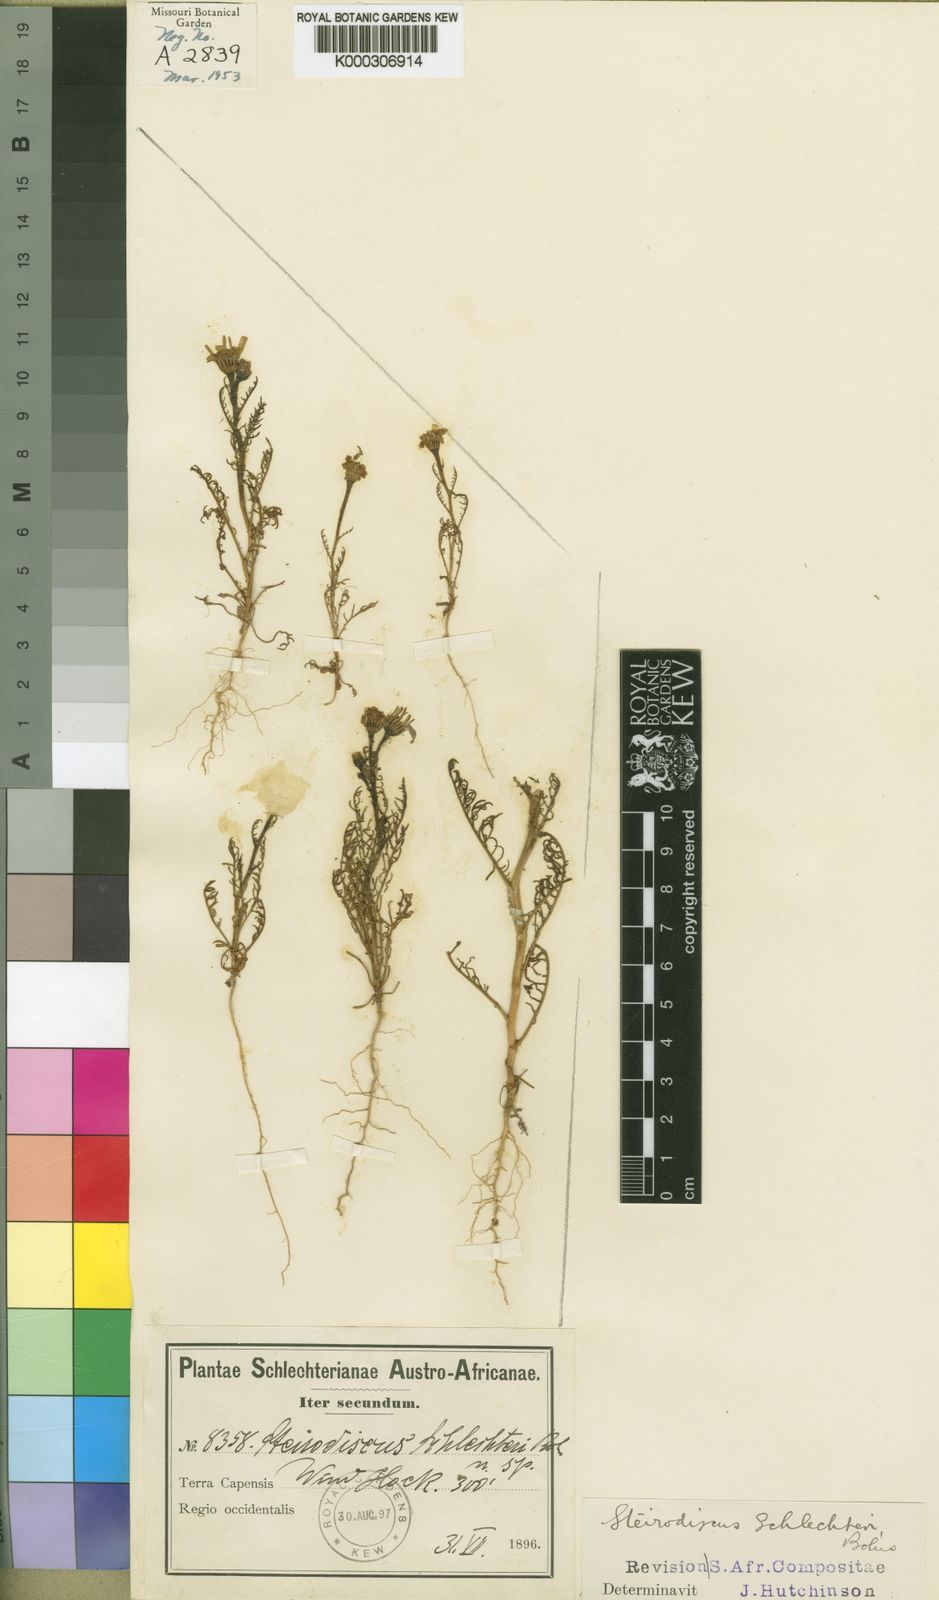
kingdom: Plantae
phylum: Tracheophyta
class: Magnoliopsida
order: Asterales
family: Asteraceae
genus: Steirodiscus
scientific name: Steirodiscus
